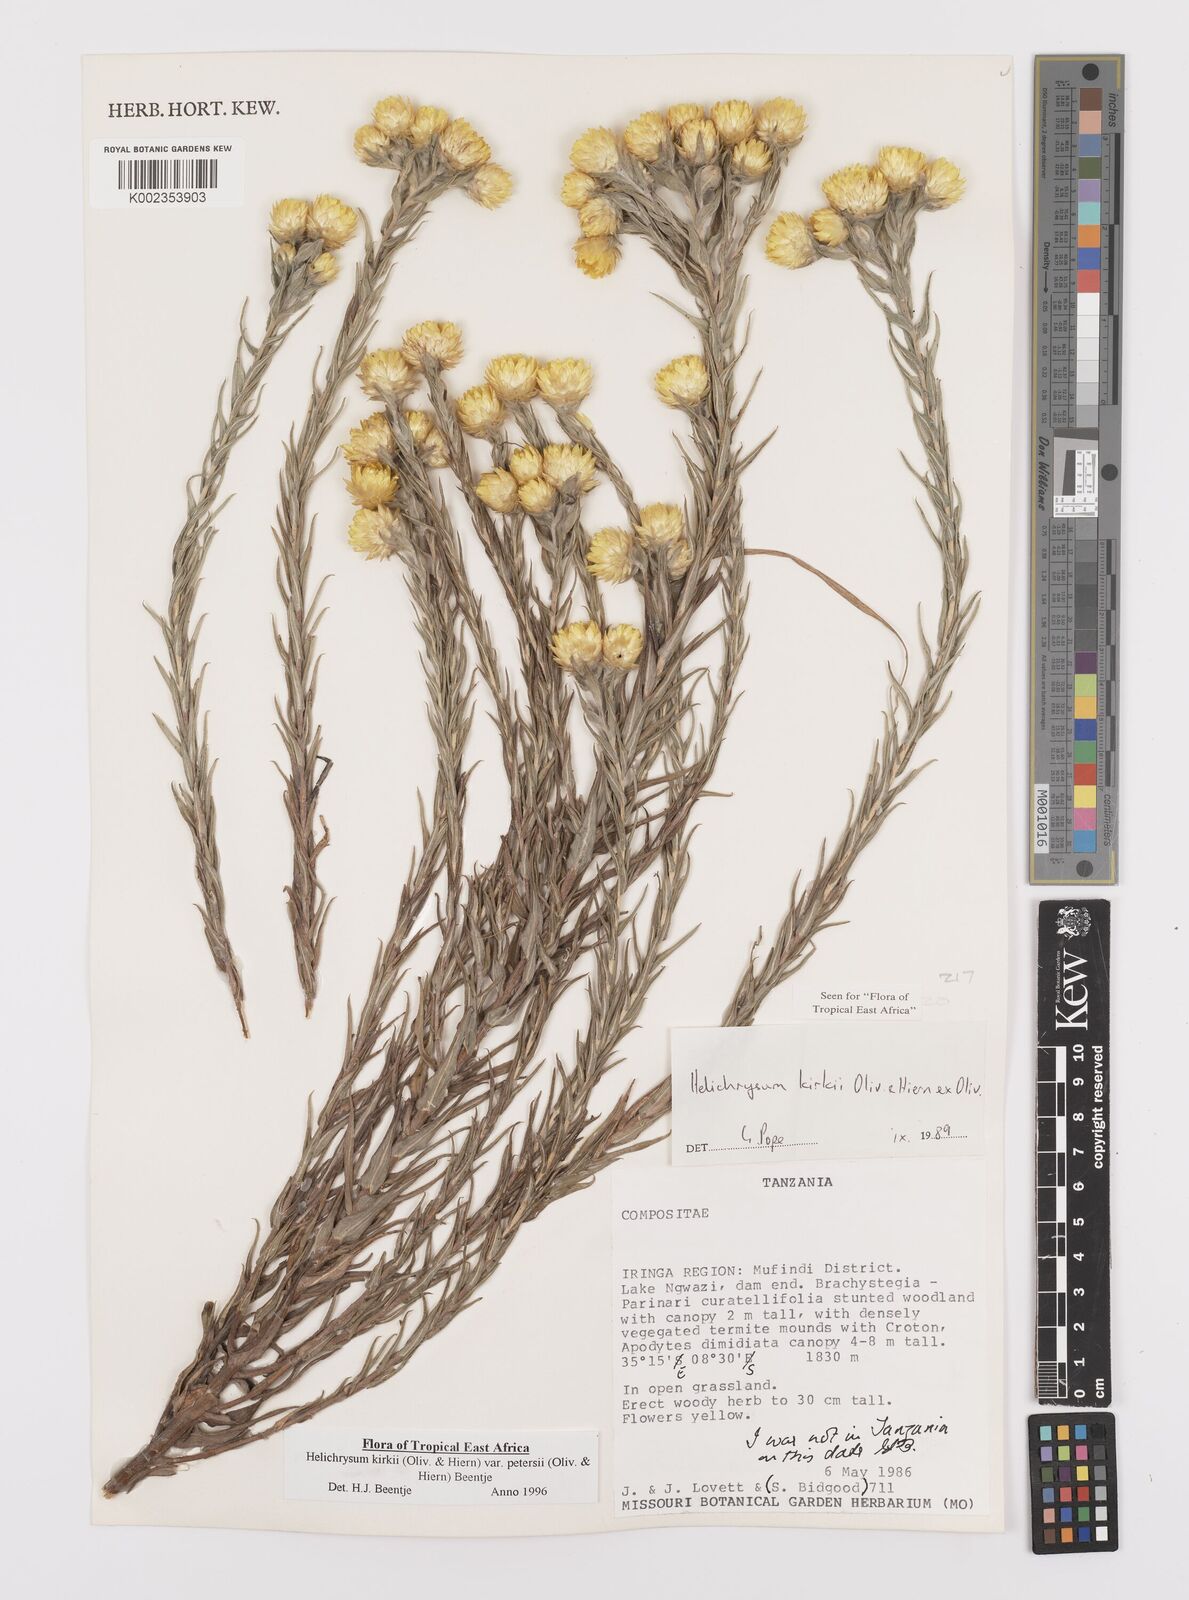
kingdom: Plantae
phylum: Tracheophyta
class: Magnoliopsida
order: Asterales
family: Asteraceae
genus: Helichrysum
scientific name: Helichrysum kirkii
